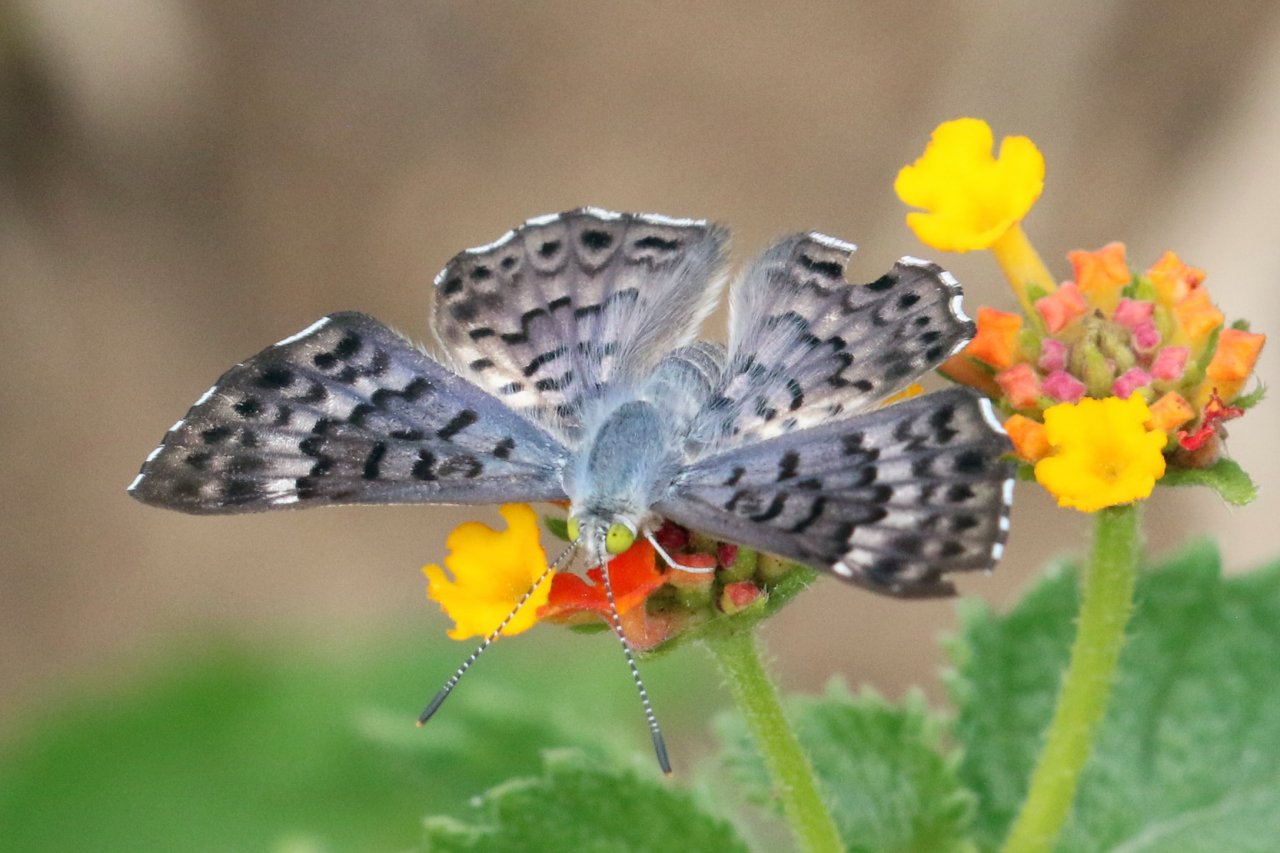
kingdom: Animalia
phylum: Arthropoda
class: Insecta
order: Lepidoptera
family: Riodinidae
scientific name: Riodinidae
